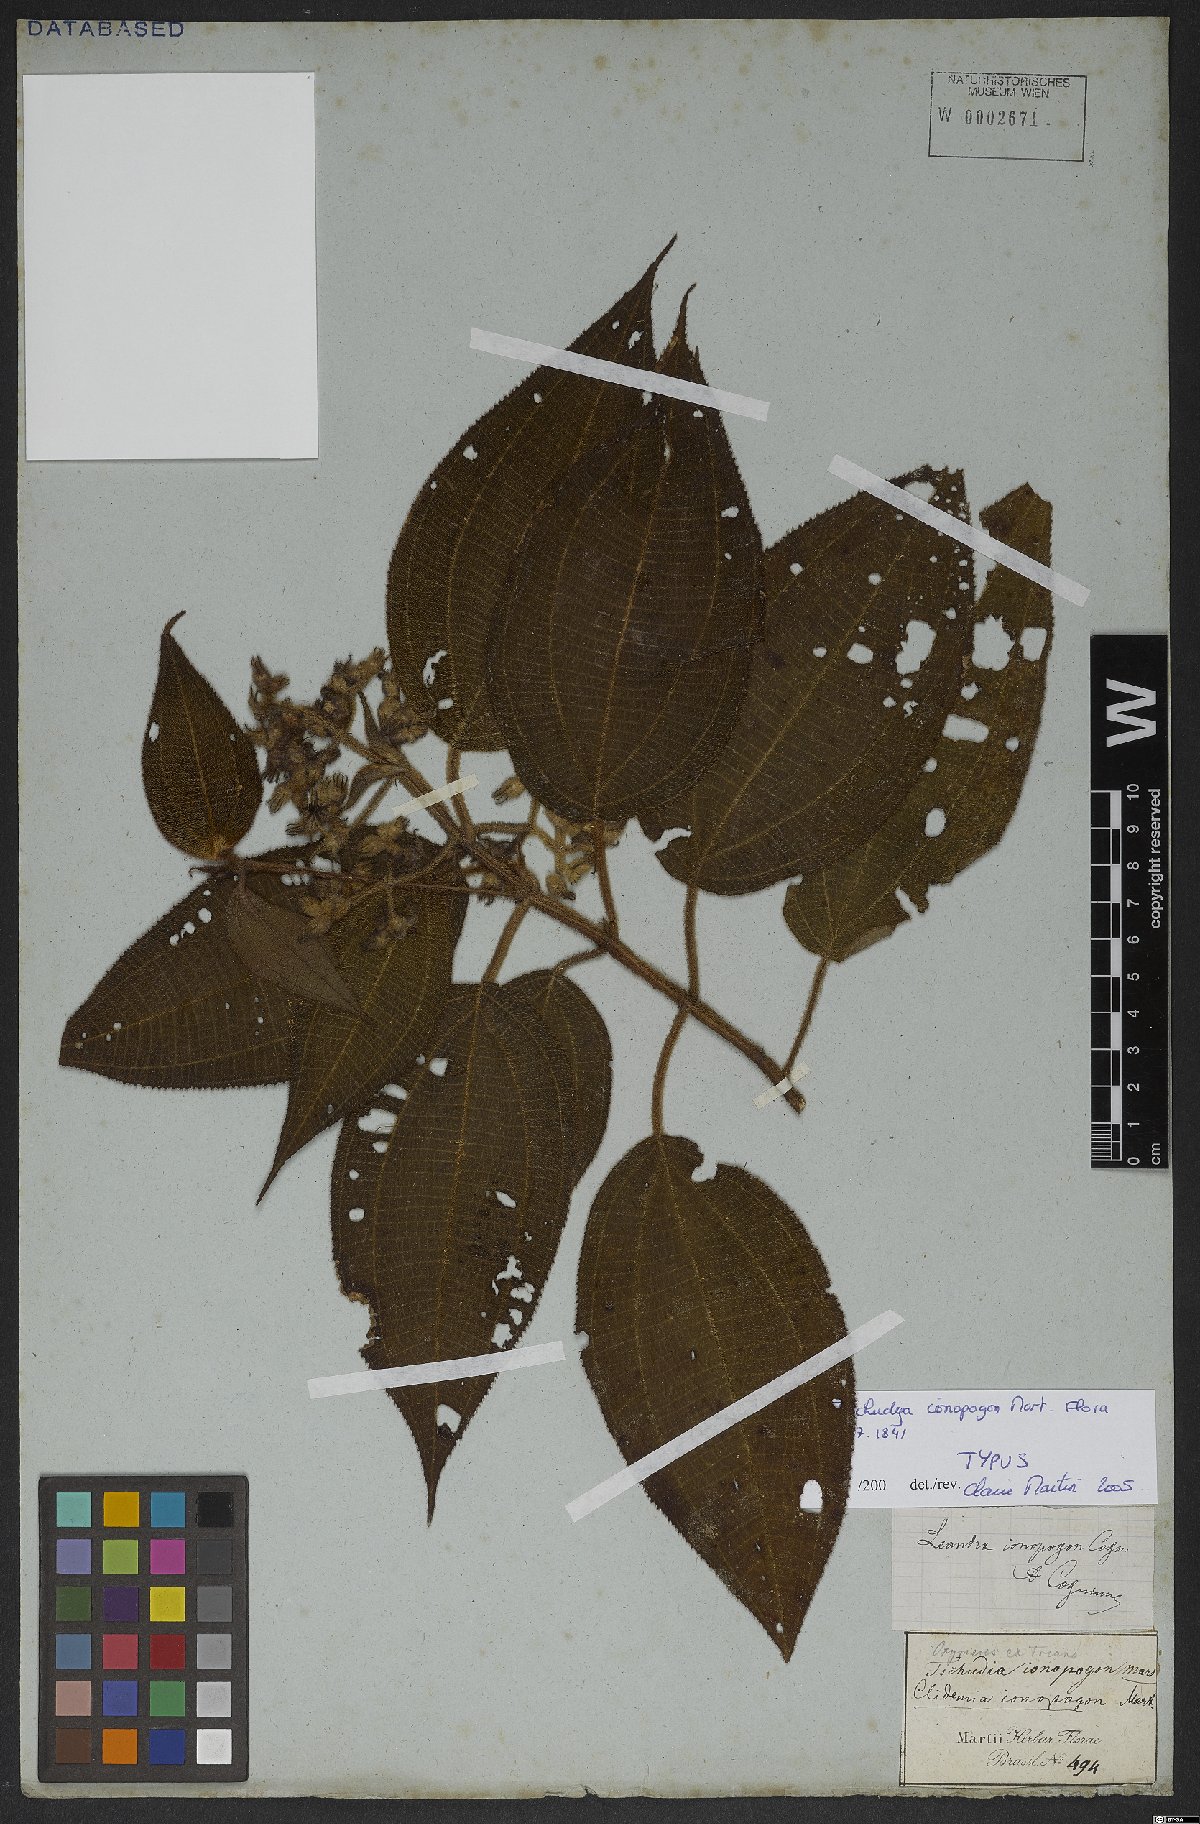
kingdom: Plantae
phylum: Tracheophyta
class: Magnoliopsida
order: Myrtales
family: Melastomataceae
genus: Miconia
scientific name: Miconia ionopogon
